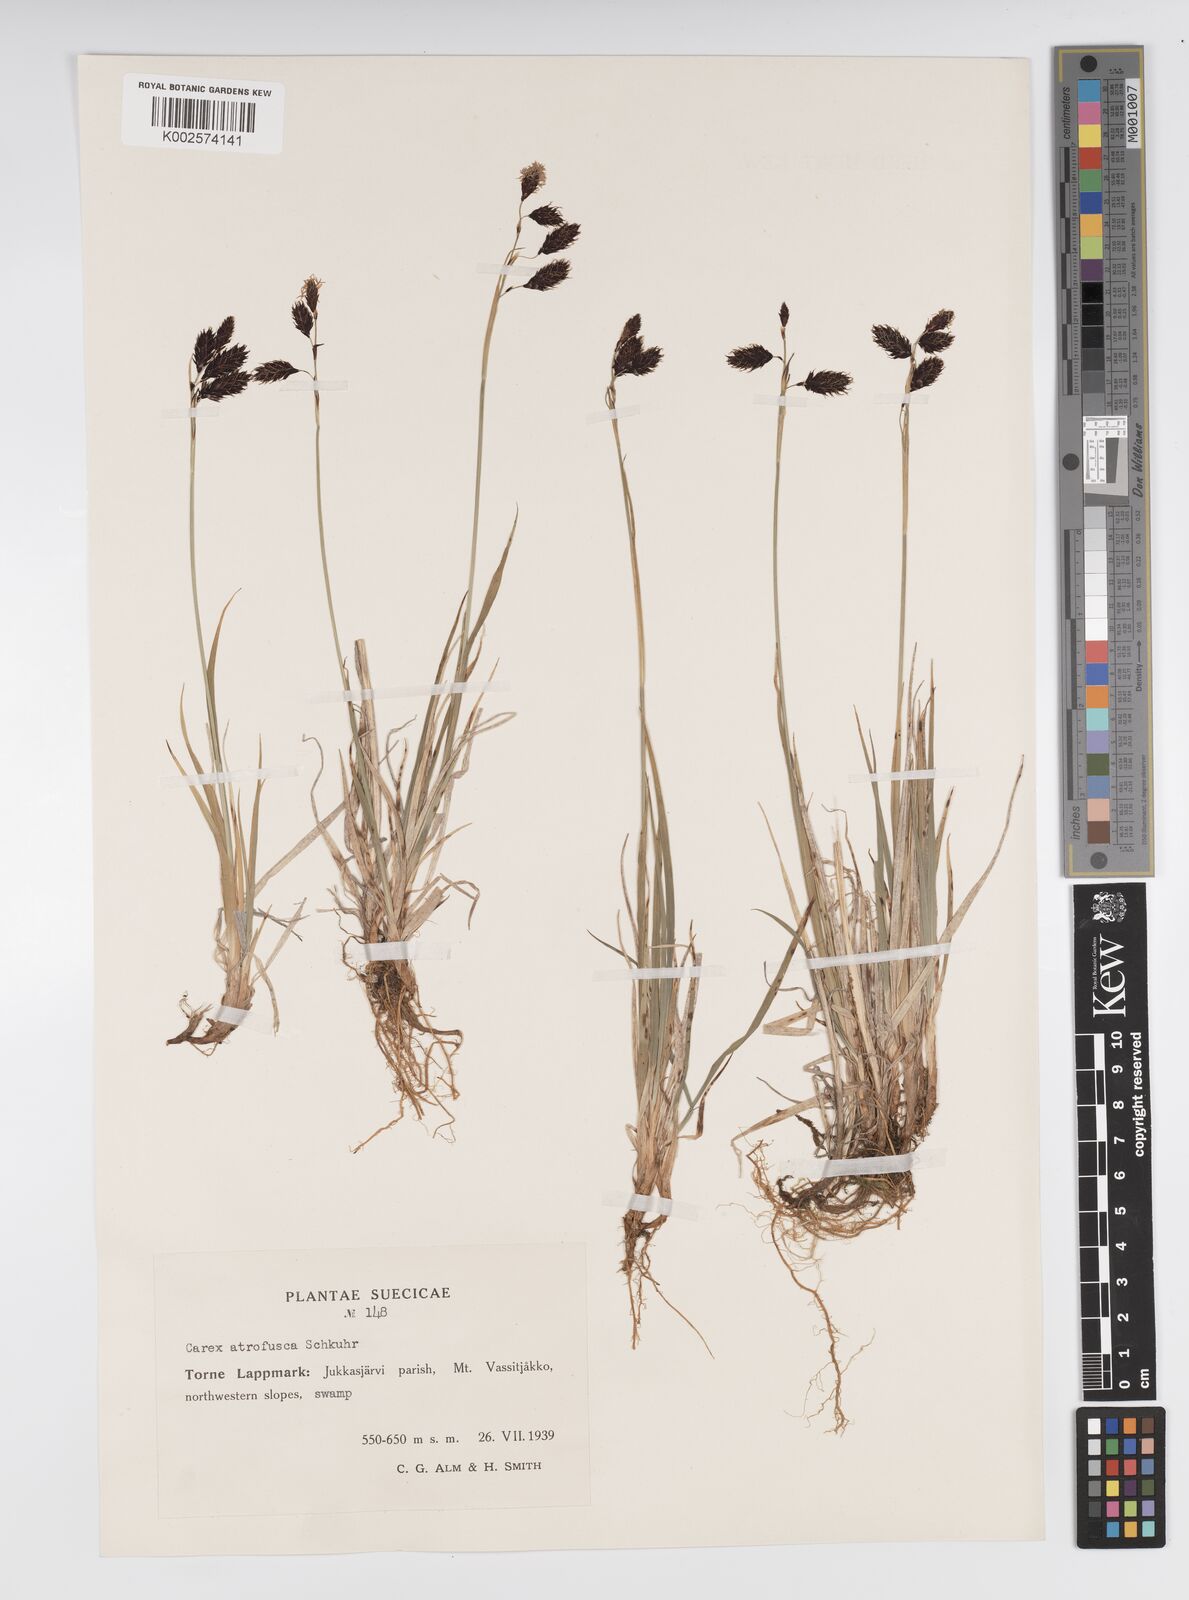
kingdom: Plantae
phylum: Tracheophyta
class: Liliopsida
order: Poales
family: Cyperaceae
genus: Carex
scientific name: Carex atrofusca
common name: Scorched alpine-sedge
